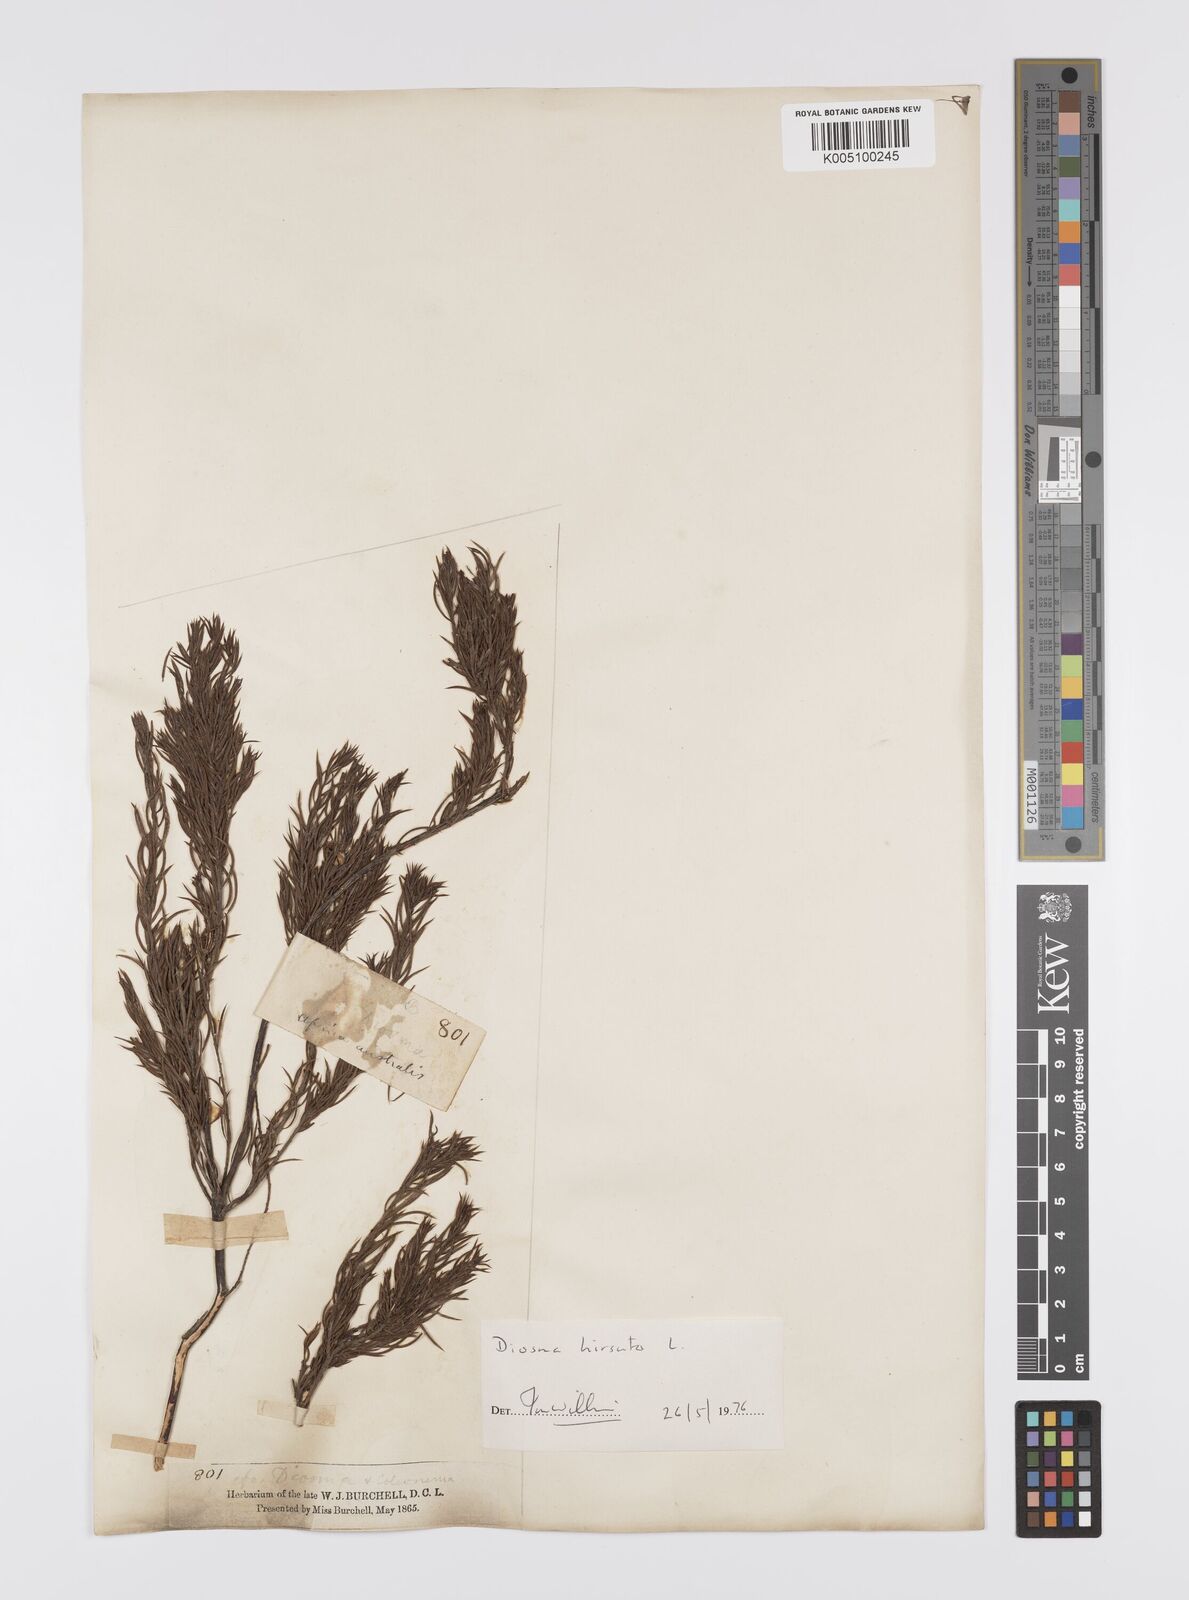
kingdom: Plantae
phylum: Tracheophyta
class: Magnoliopsida
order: Sapindales
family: Rutaceae
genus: Diosma
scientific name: Diosma hirsuta
